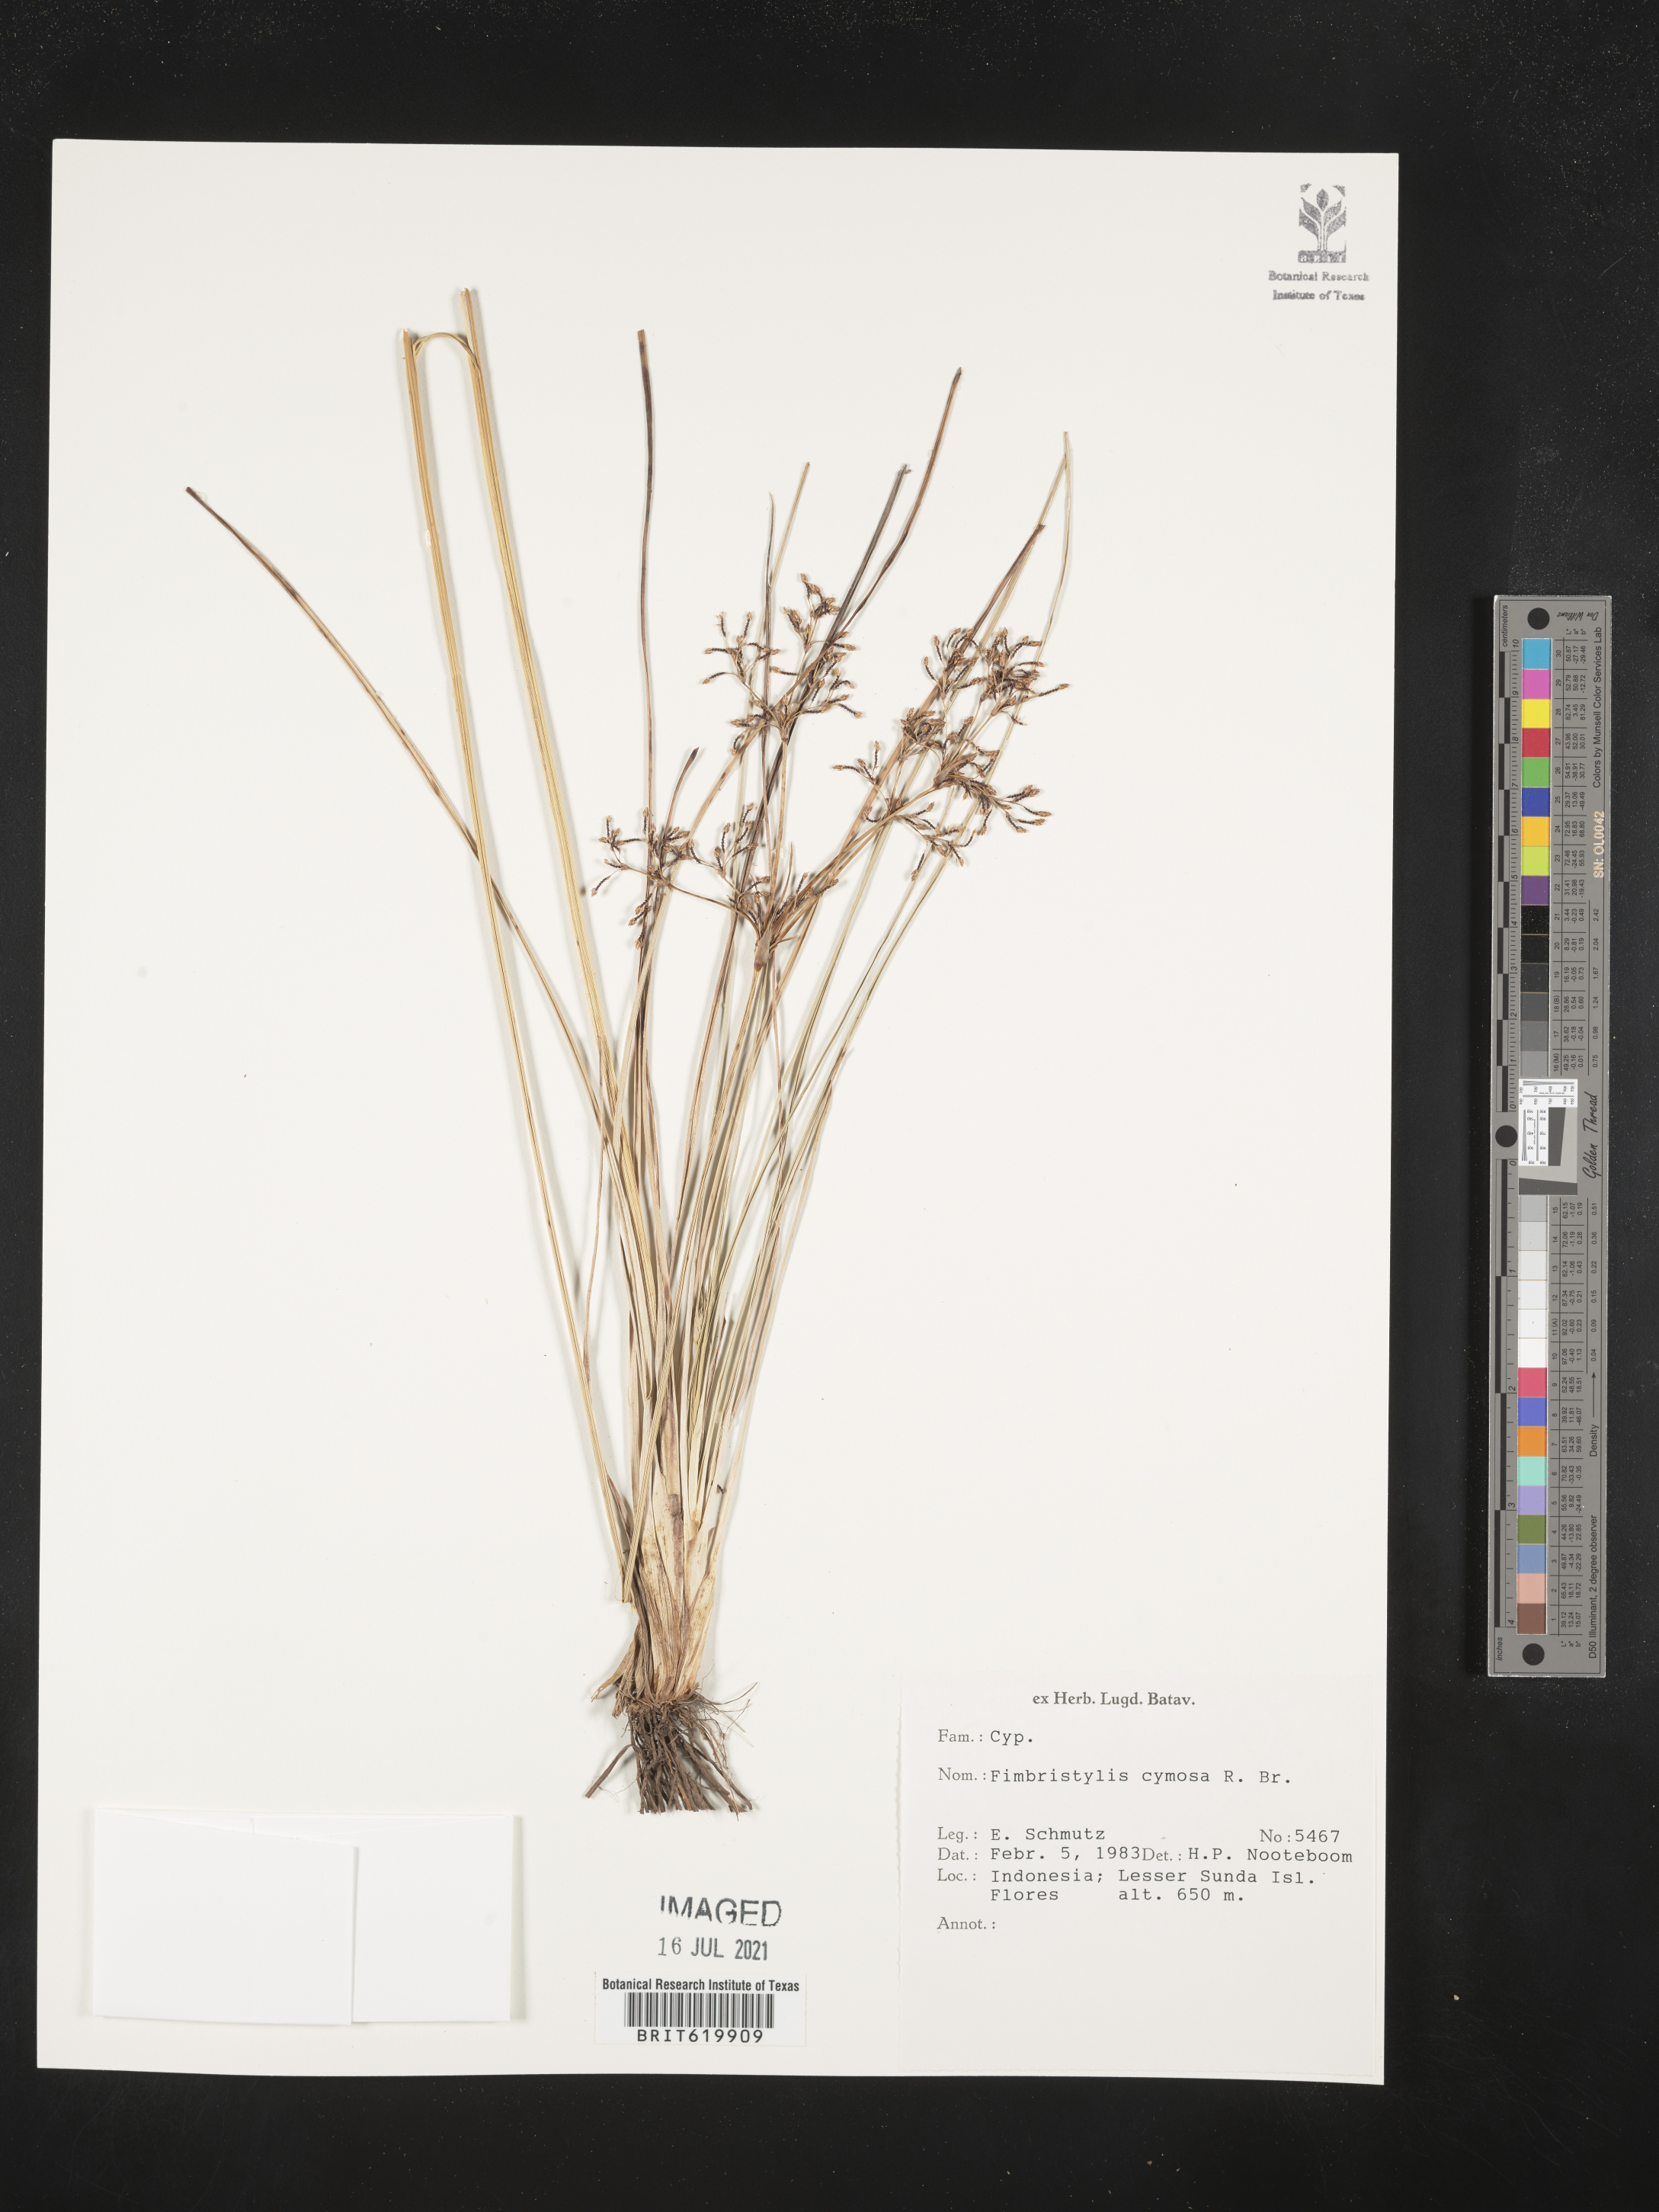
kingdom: Plantae
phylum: Tracheophyta
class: Liliopsida
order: Poales
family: Cyperaceae
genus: Fimbristylis
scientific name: Fimbristylis cymosa
